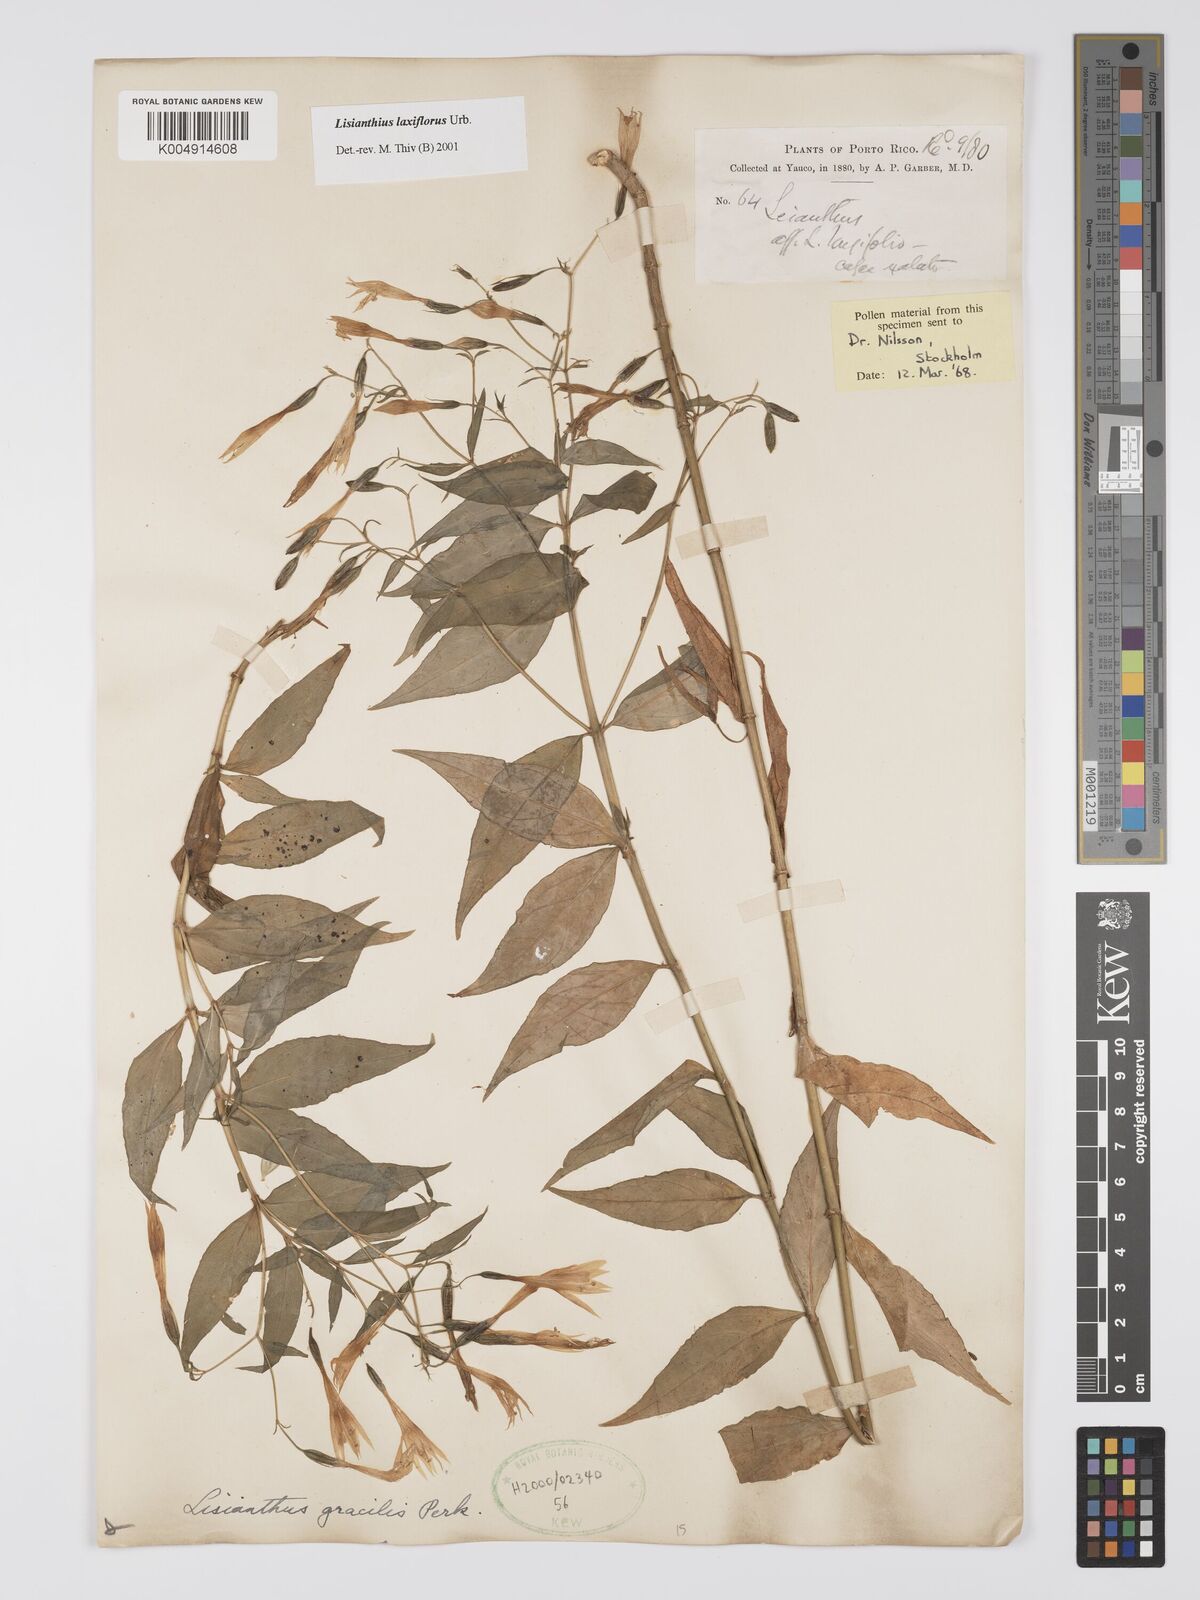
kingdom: Plantae
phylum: Tracheophyta
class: Magnoliopsida
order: Gentianales
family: Gentianaceae
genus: Lisianthius
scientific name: Lisianthius laxiflorus
